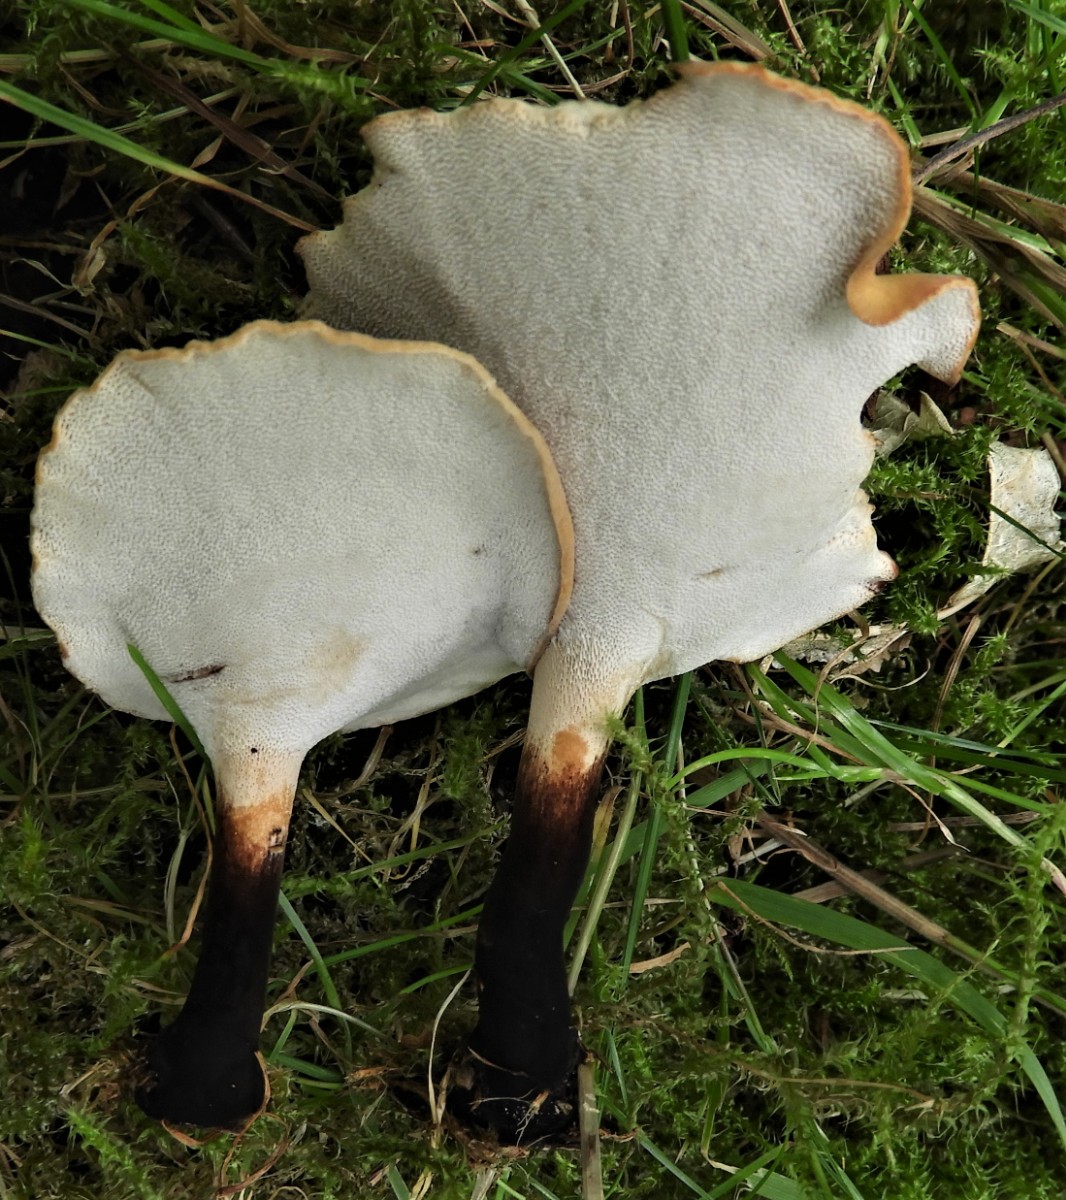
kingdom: Fungi
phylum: Basidiomycota
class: Agaricomycetes
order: Polyporales
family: Polyporaceae
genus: Cerioporus
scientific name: Cerioporus varius
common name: foranderlig stilkporesvamp
